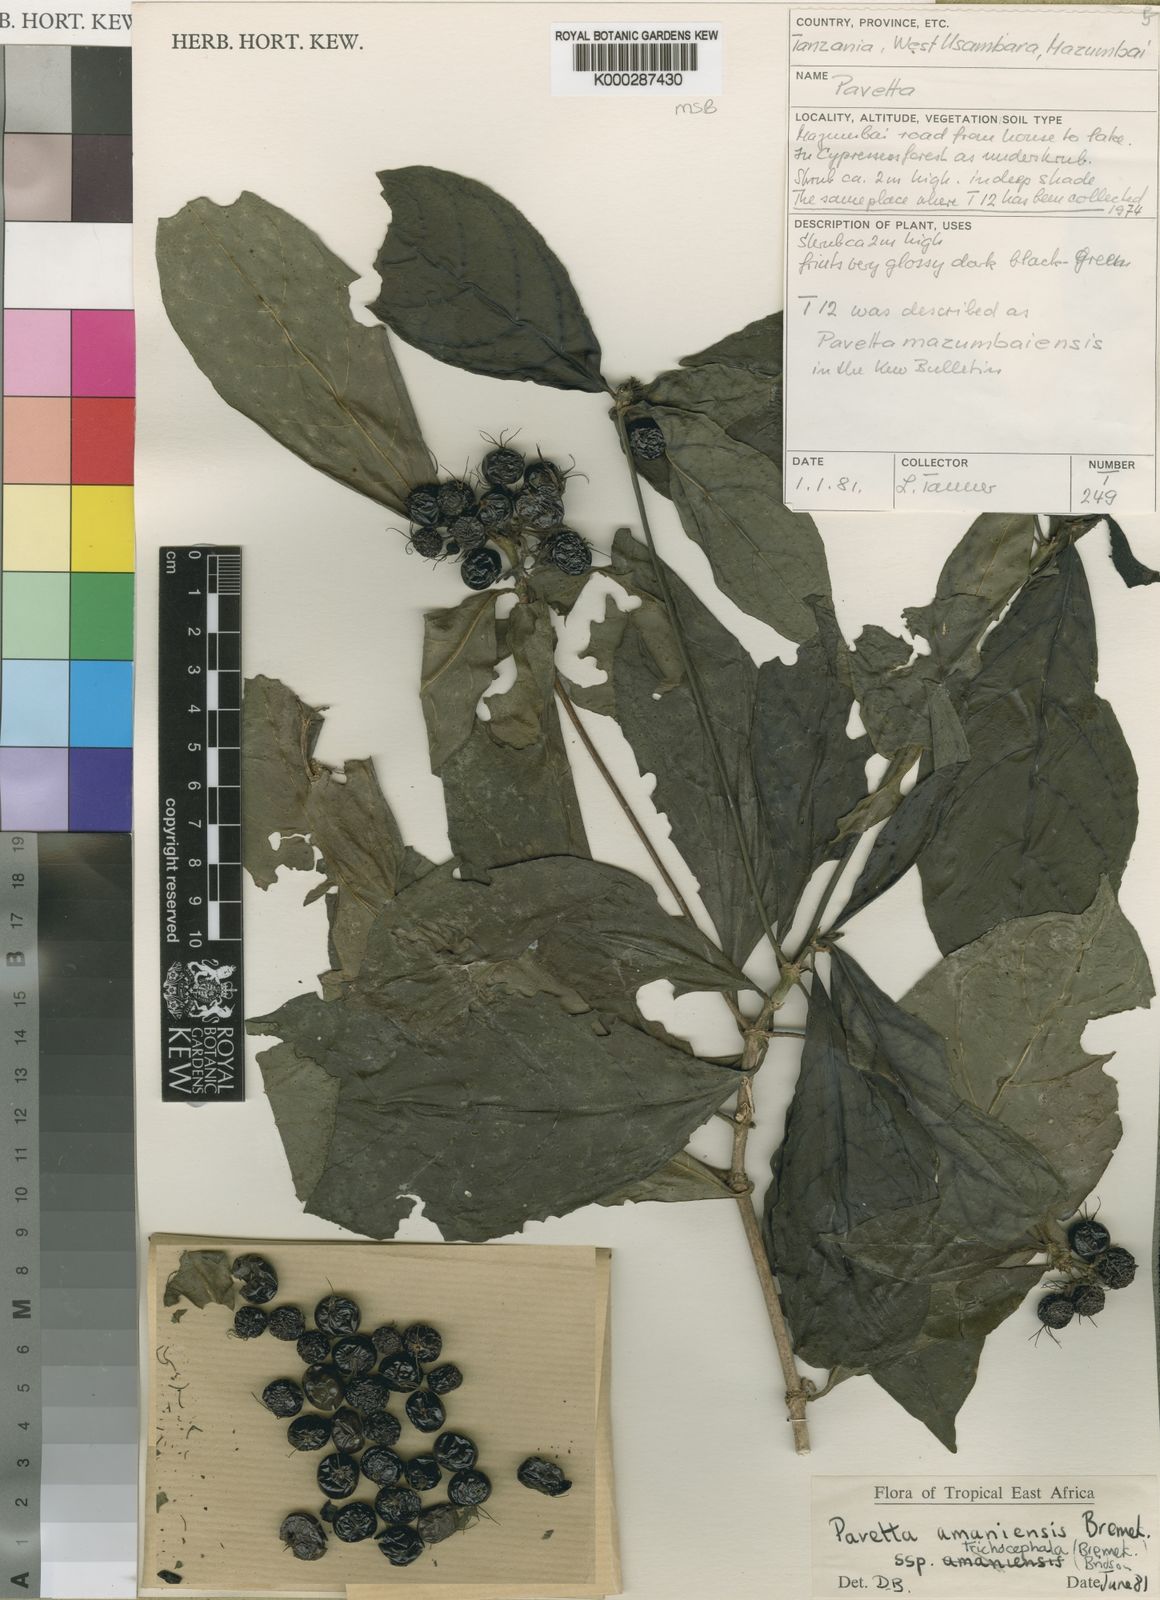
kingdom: Plantae
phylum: Tracheophyta
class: Magnoliopsida
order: Gentianales
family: Rubiaceae
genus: Pavetta
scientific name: Pavetta amaniensis
